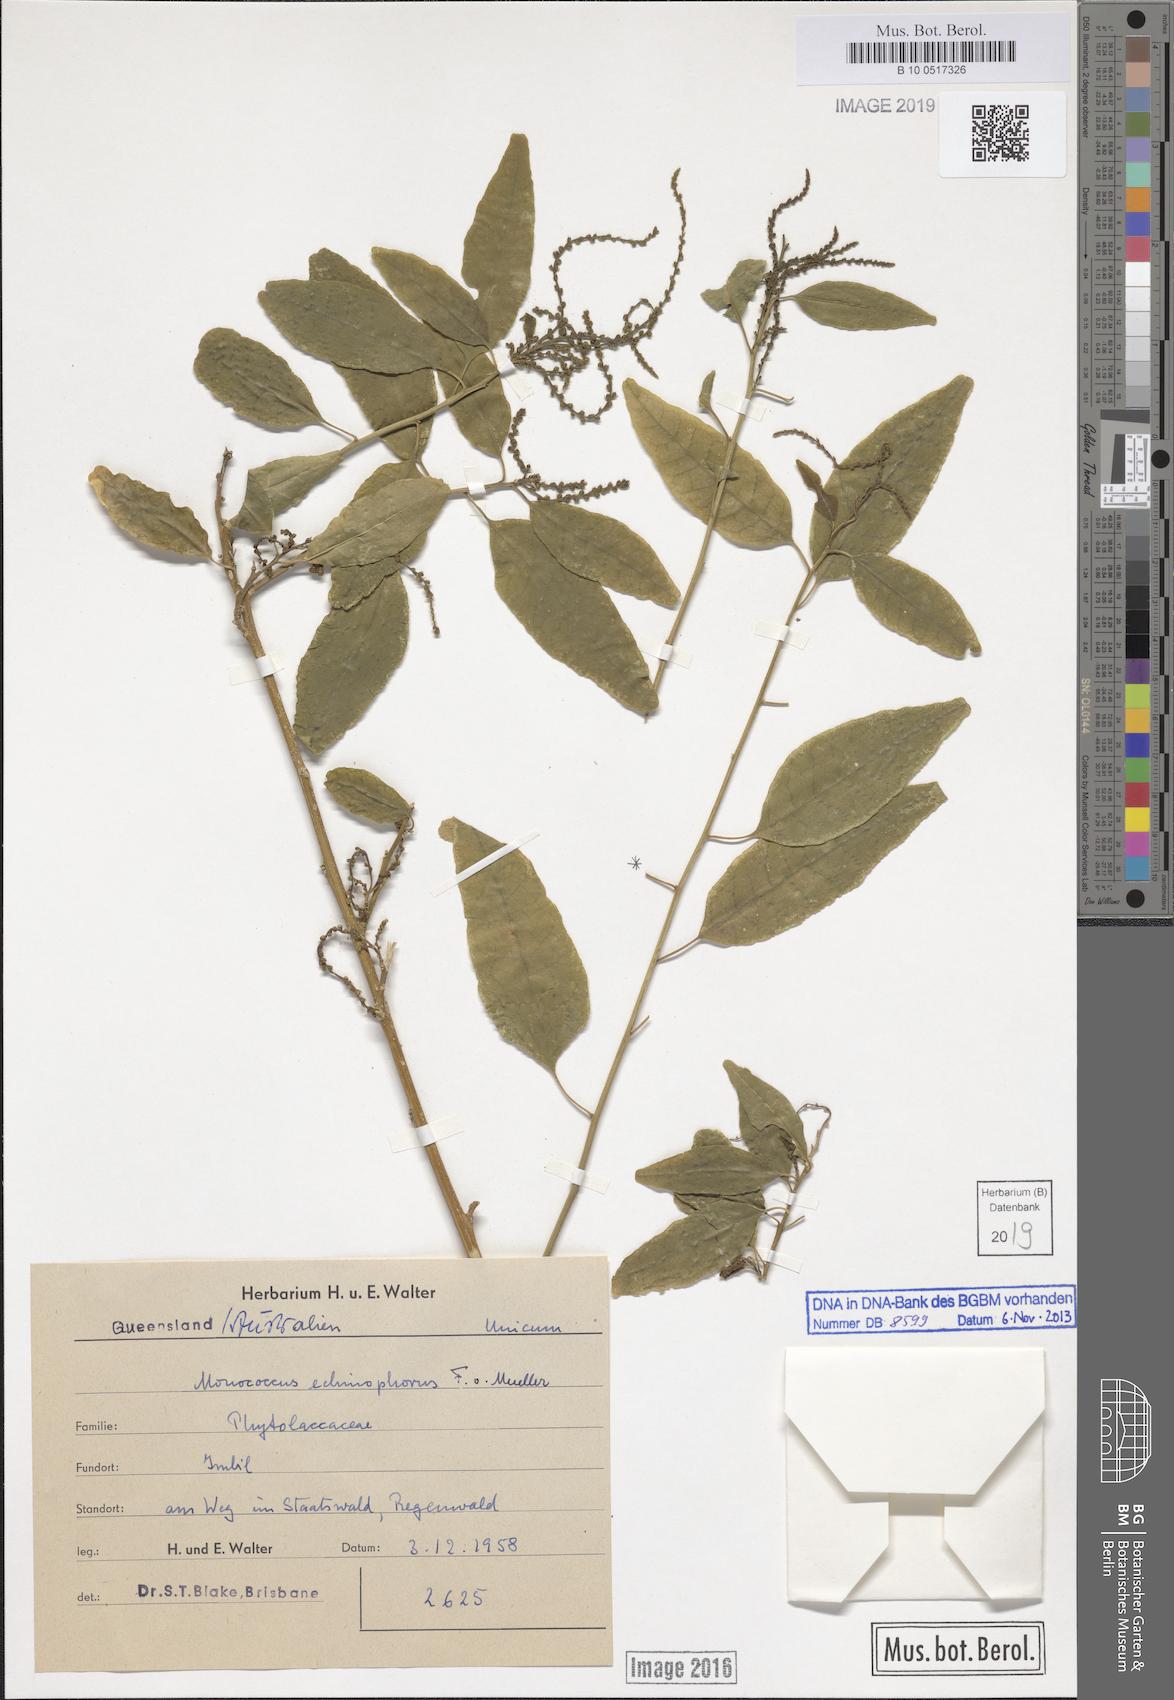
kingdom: Plantae
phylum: Tracheophyta
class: Magnoliopsida
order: Caryophyllales
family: Phytolaccaceae
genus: Monococcus
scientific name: Monococcus
